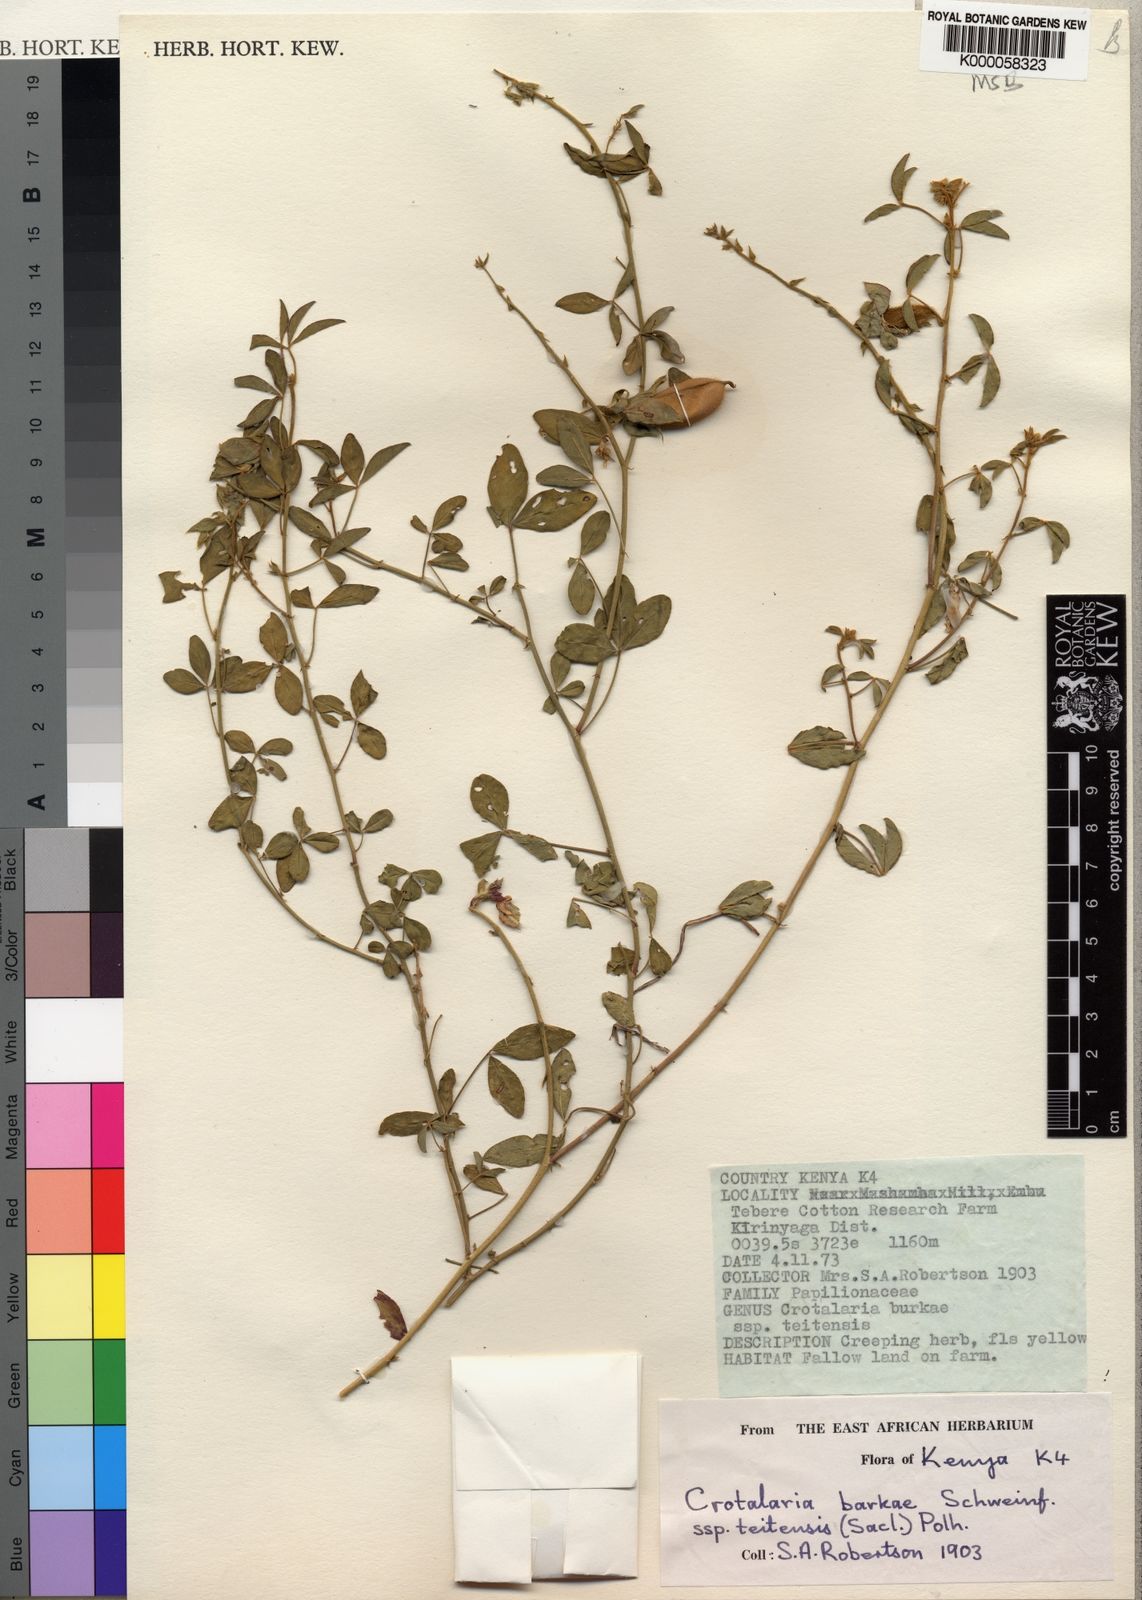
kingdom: Plantae
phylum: Tracheophyta
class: Magnoliopsida
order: Fabales
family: Fabaceae
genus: Crotalaria
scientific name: Crotalaria barkae
